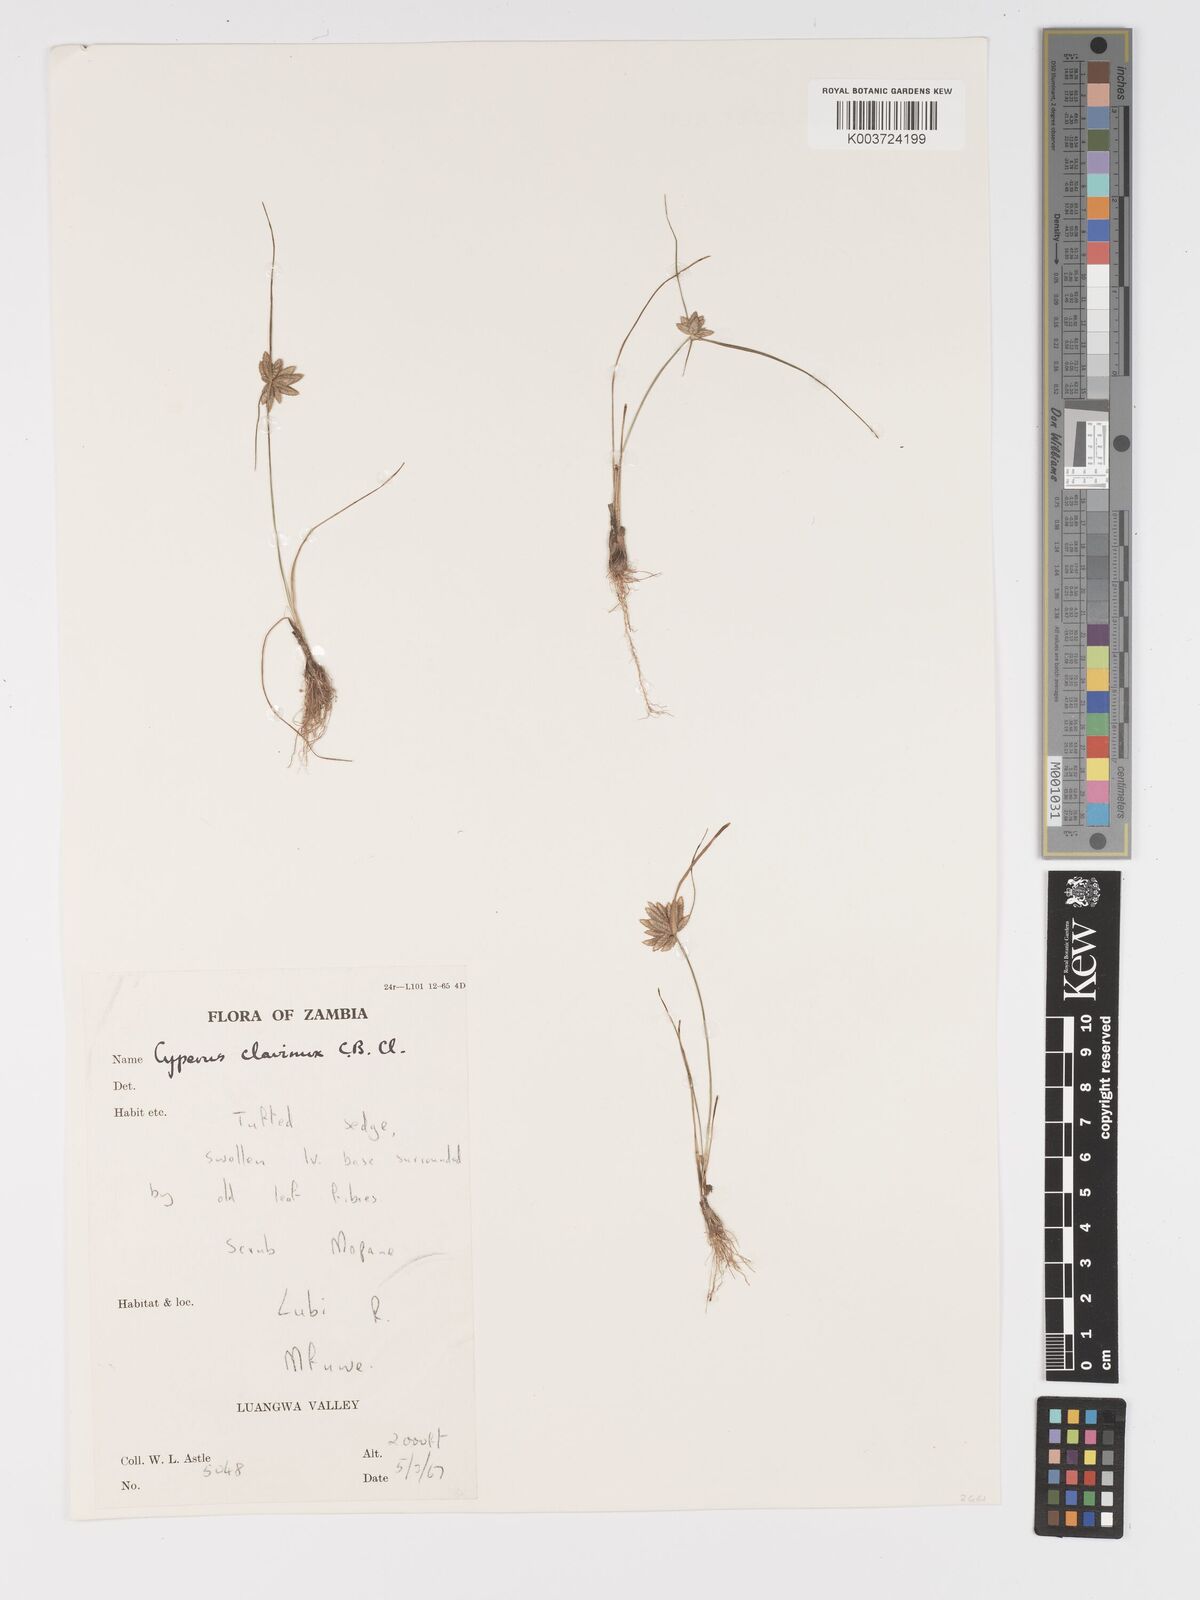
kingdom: Plantae
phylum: Tracheophyta
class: Liliopsida
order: Poales
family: Cyperaceae
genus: Cyperus
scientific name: Cyperus clavinux
